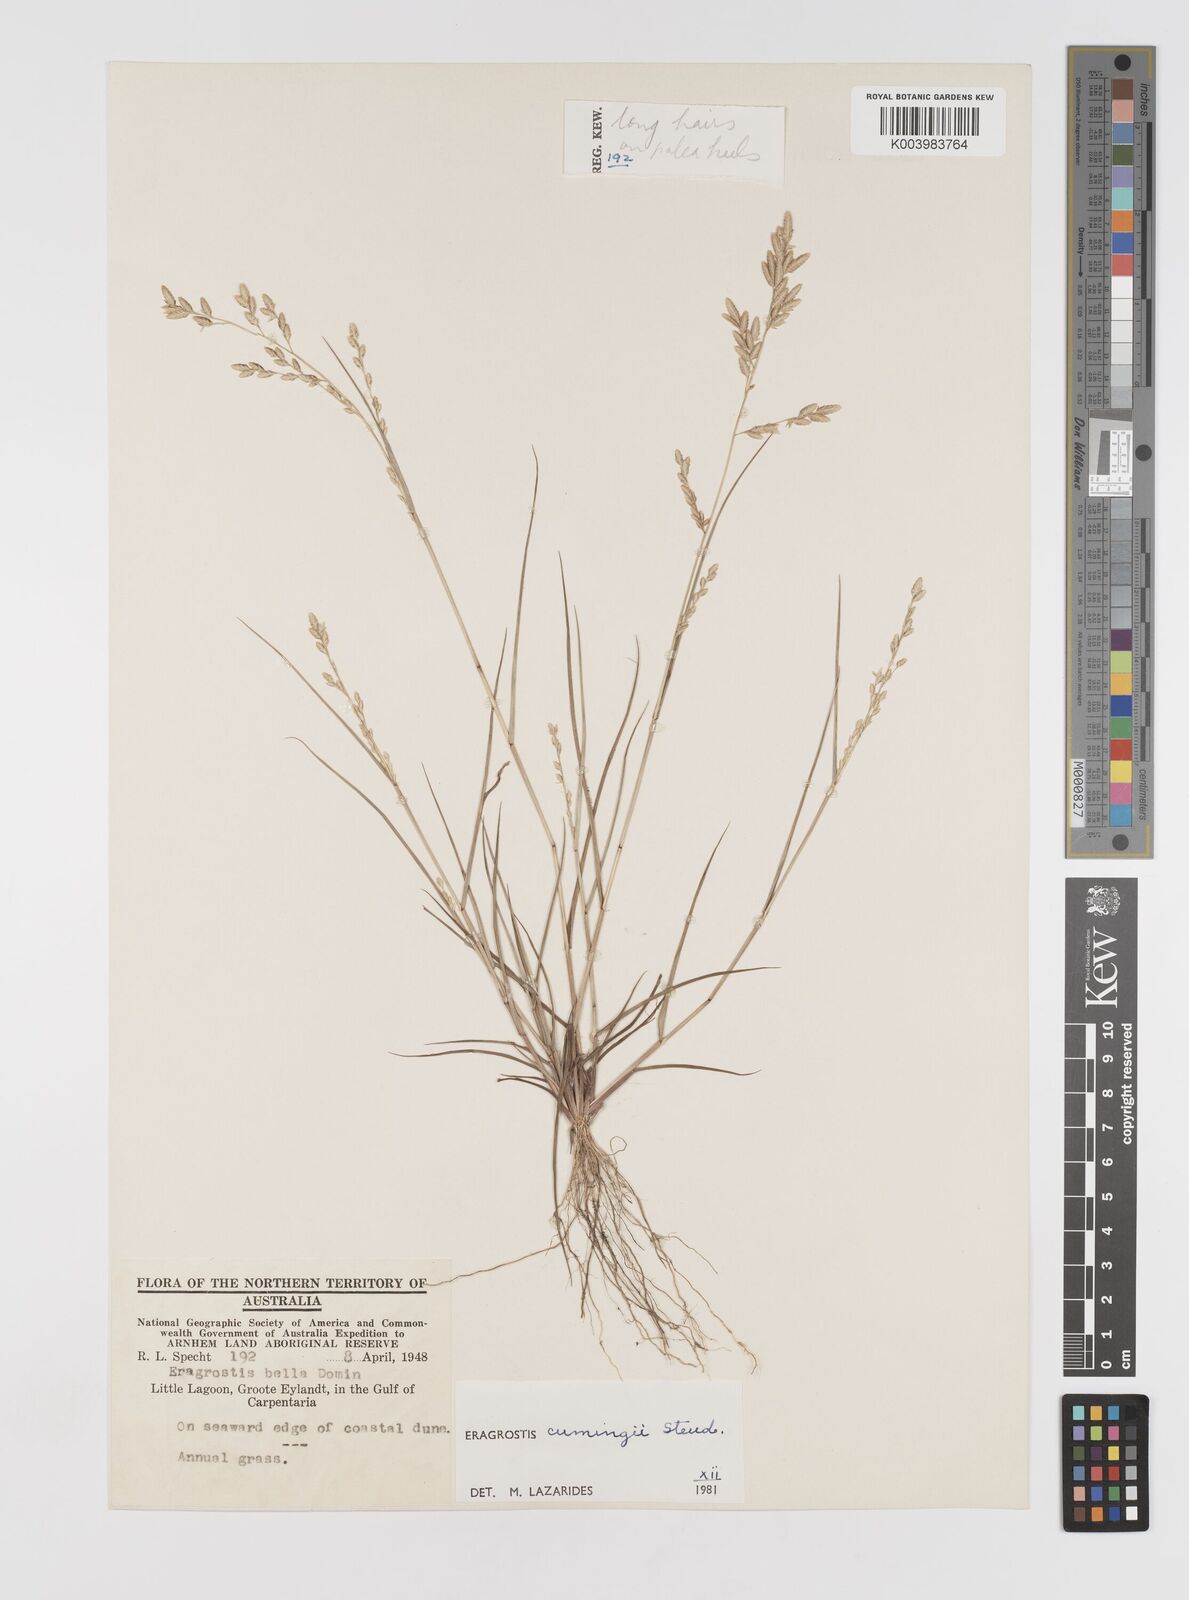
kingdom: Plantae
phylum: Tracheophyta
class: Liliopsida
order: Poales
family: Poaceae
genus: Eragrostis
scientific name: Eragrostis cumingii
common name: Cuming's lovegrass
